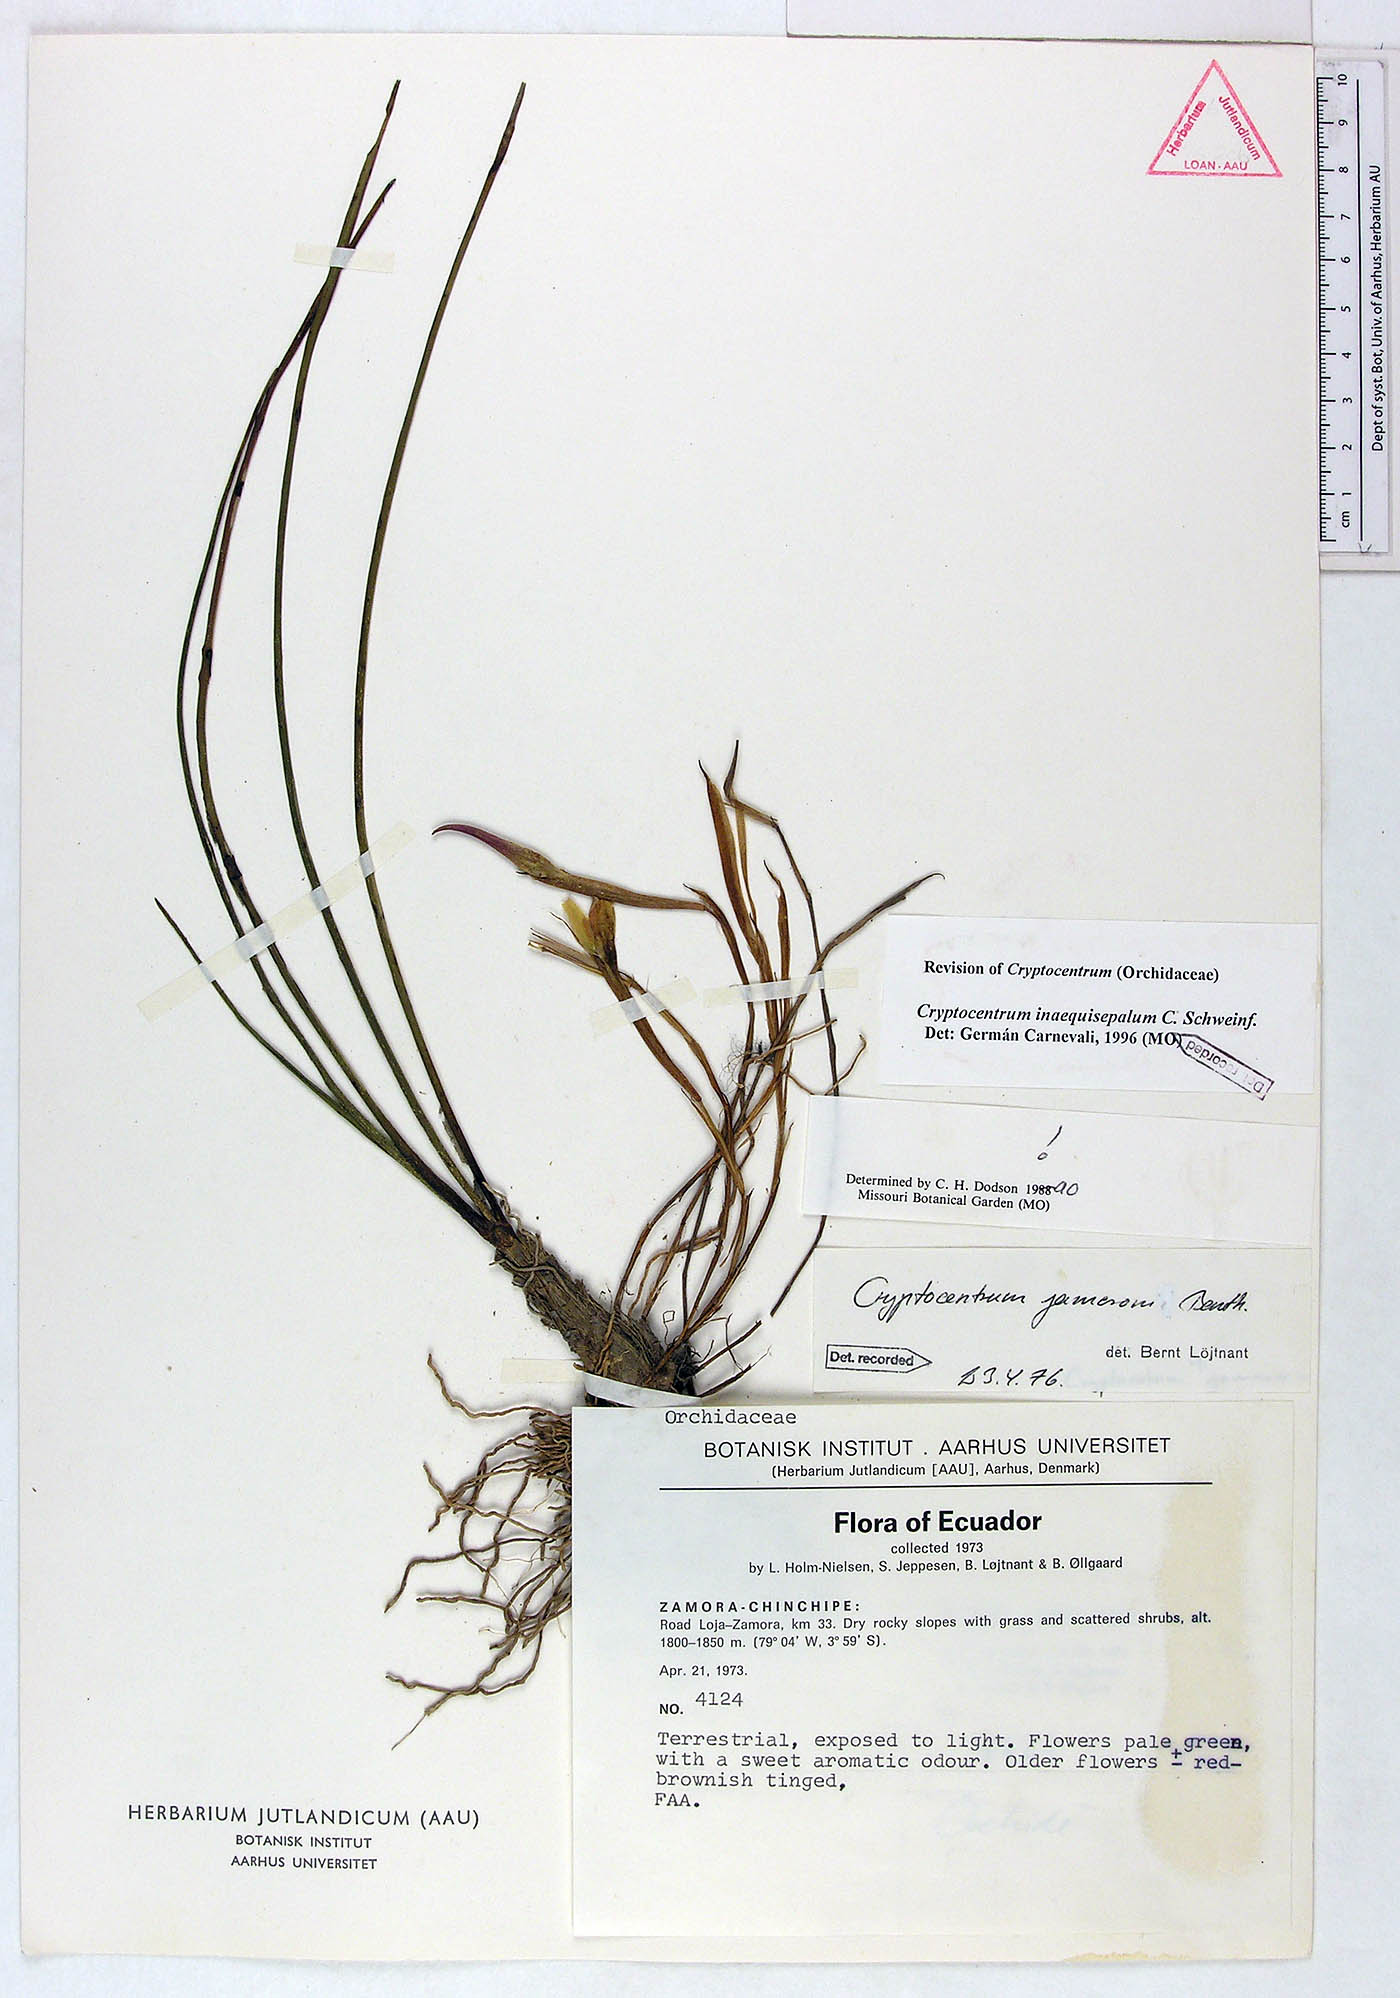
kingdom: Plantae
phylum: Tracheophyta
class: Liliopsida
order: Asparagales
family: Orchidaceae
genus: Maxillaria
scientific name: Maxillaria inaequisepala
